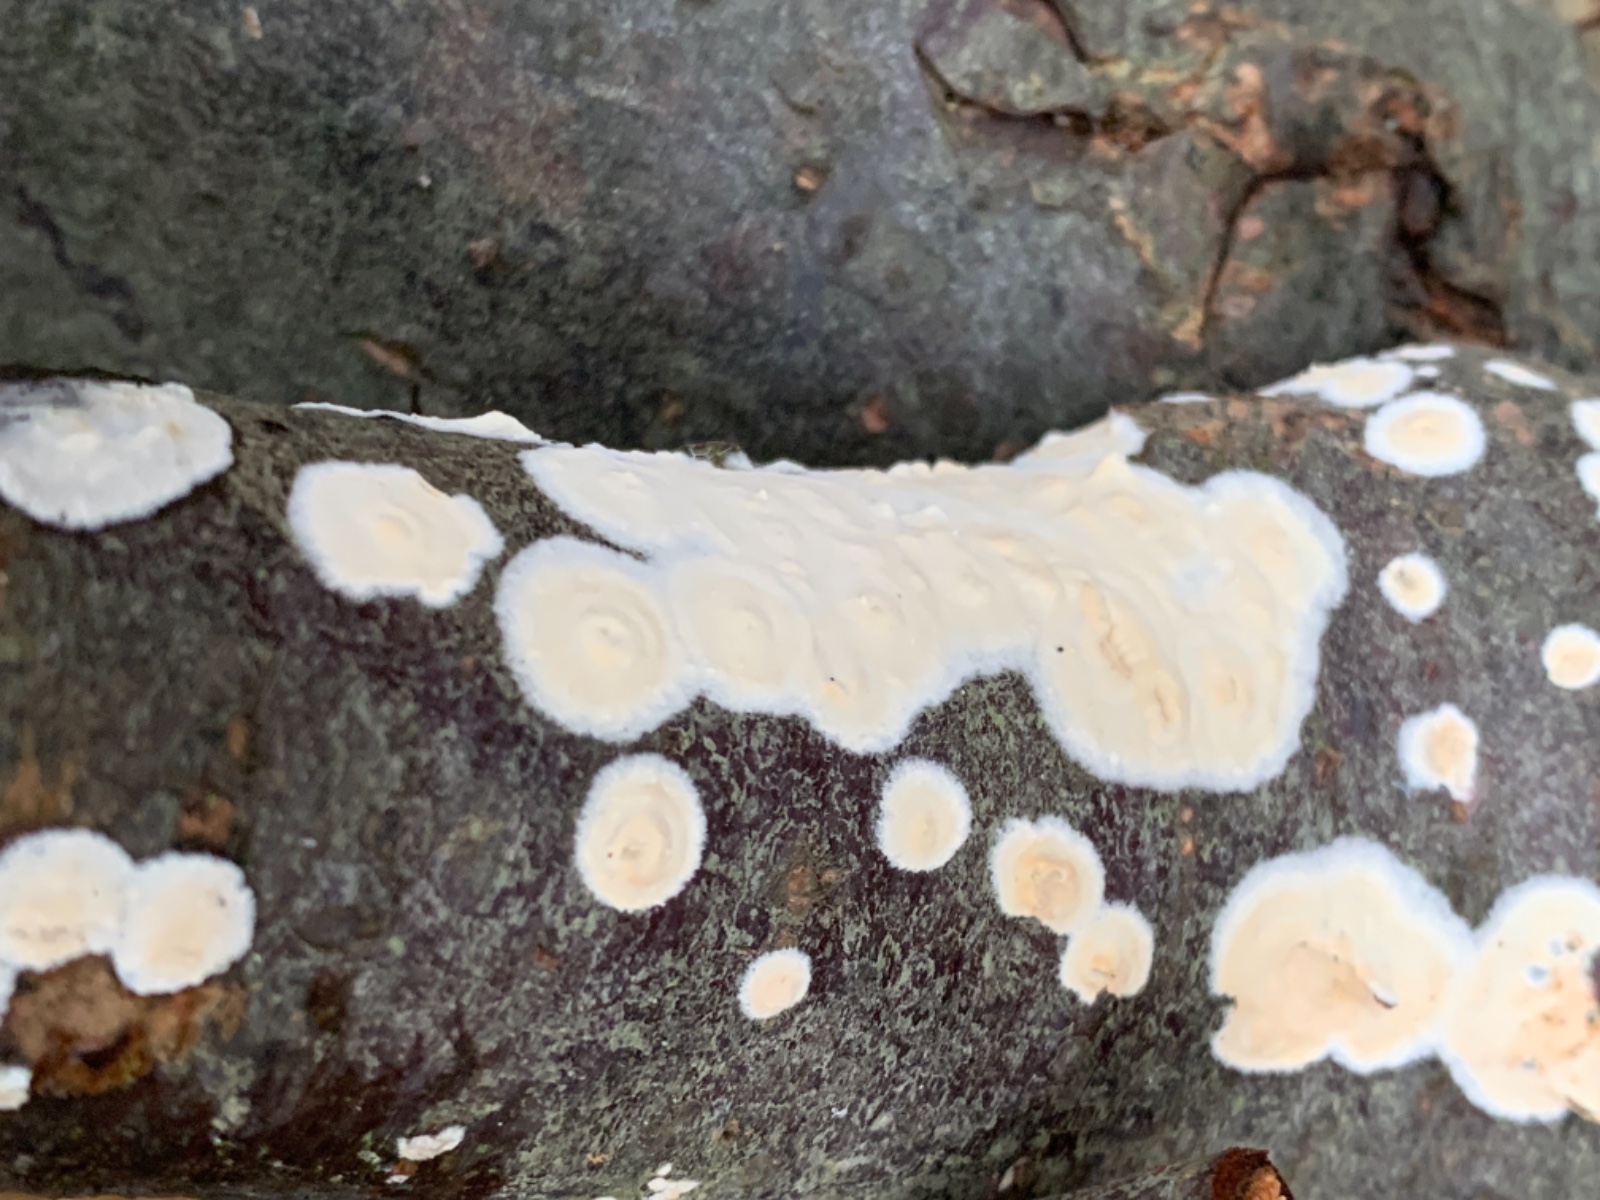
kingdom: Fungi
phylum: Basidiomycota
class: Agaricomycetes
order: Agaricales
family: Physalacriaceae
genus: Cylindrobasidium
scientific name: Cylindrobasidium evolvens
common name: sprækkehinde
